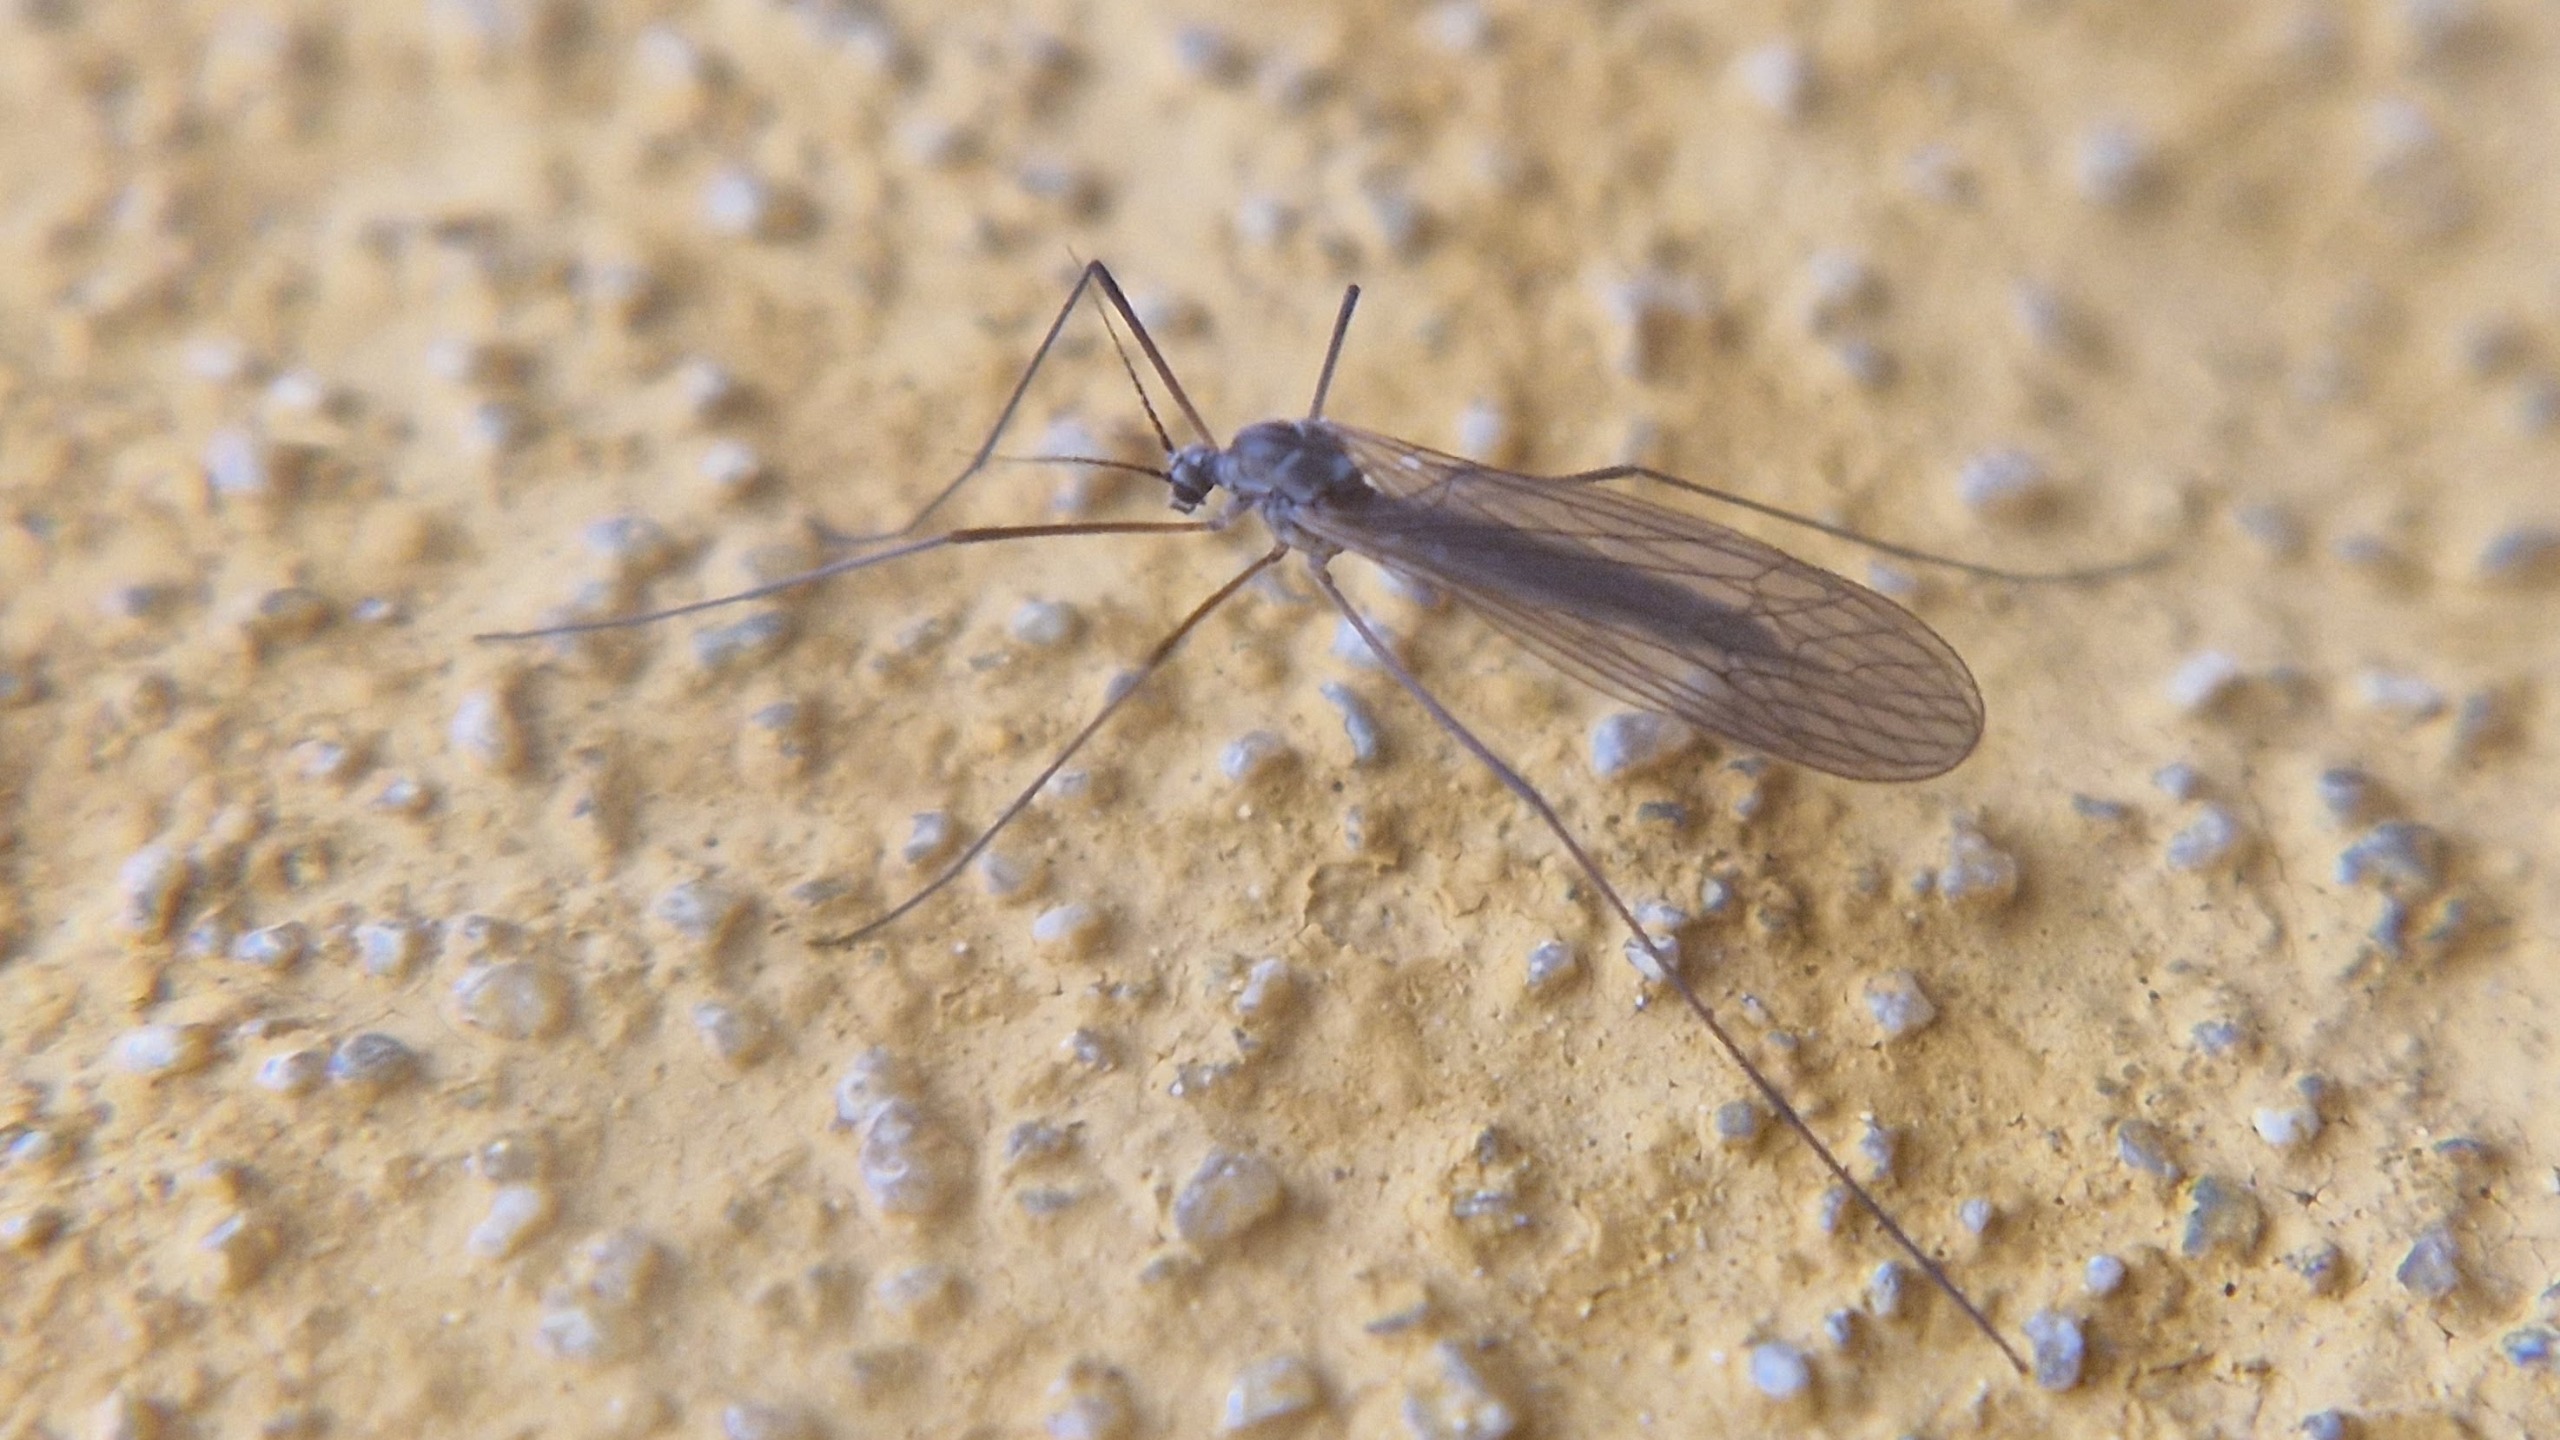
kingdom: Animalia
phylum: Arthropoda
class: Insecta
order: Diptera
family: Trichoceridae
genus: Trichocera
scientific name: Trichocera
